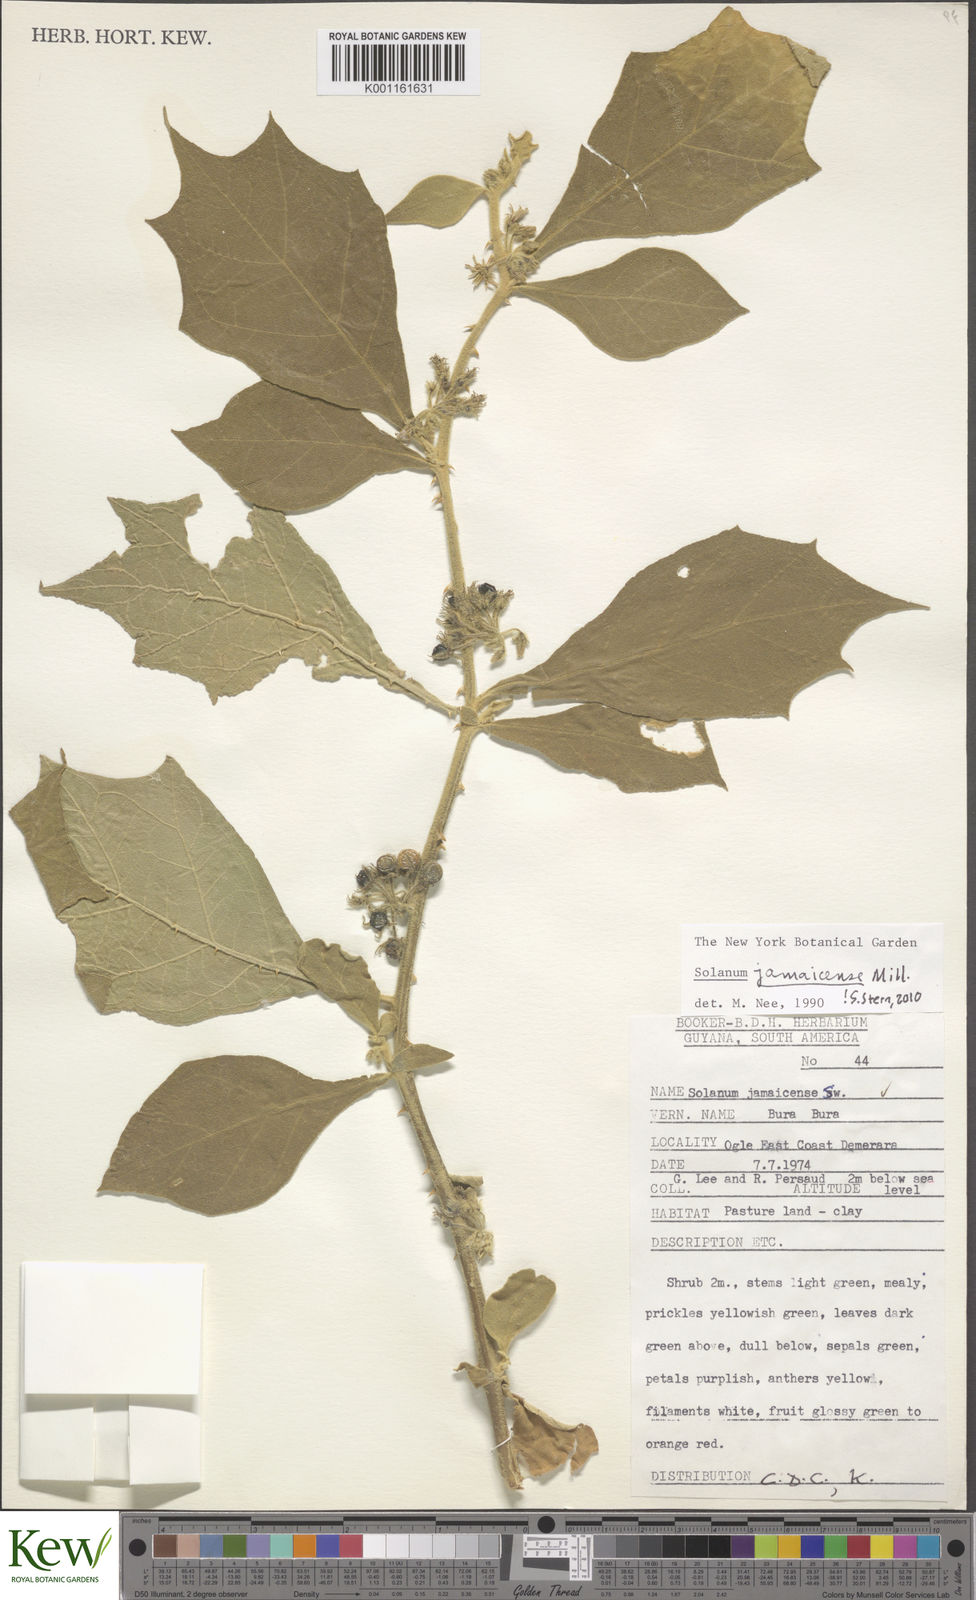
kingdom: Plantae
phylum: Tracheophyta
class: Magnoliopsida
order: Solanales
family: Solanaceae
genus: Solanum
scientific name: Solanum jamaicense
